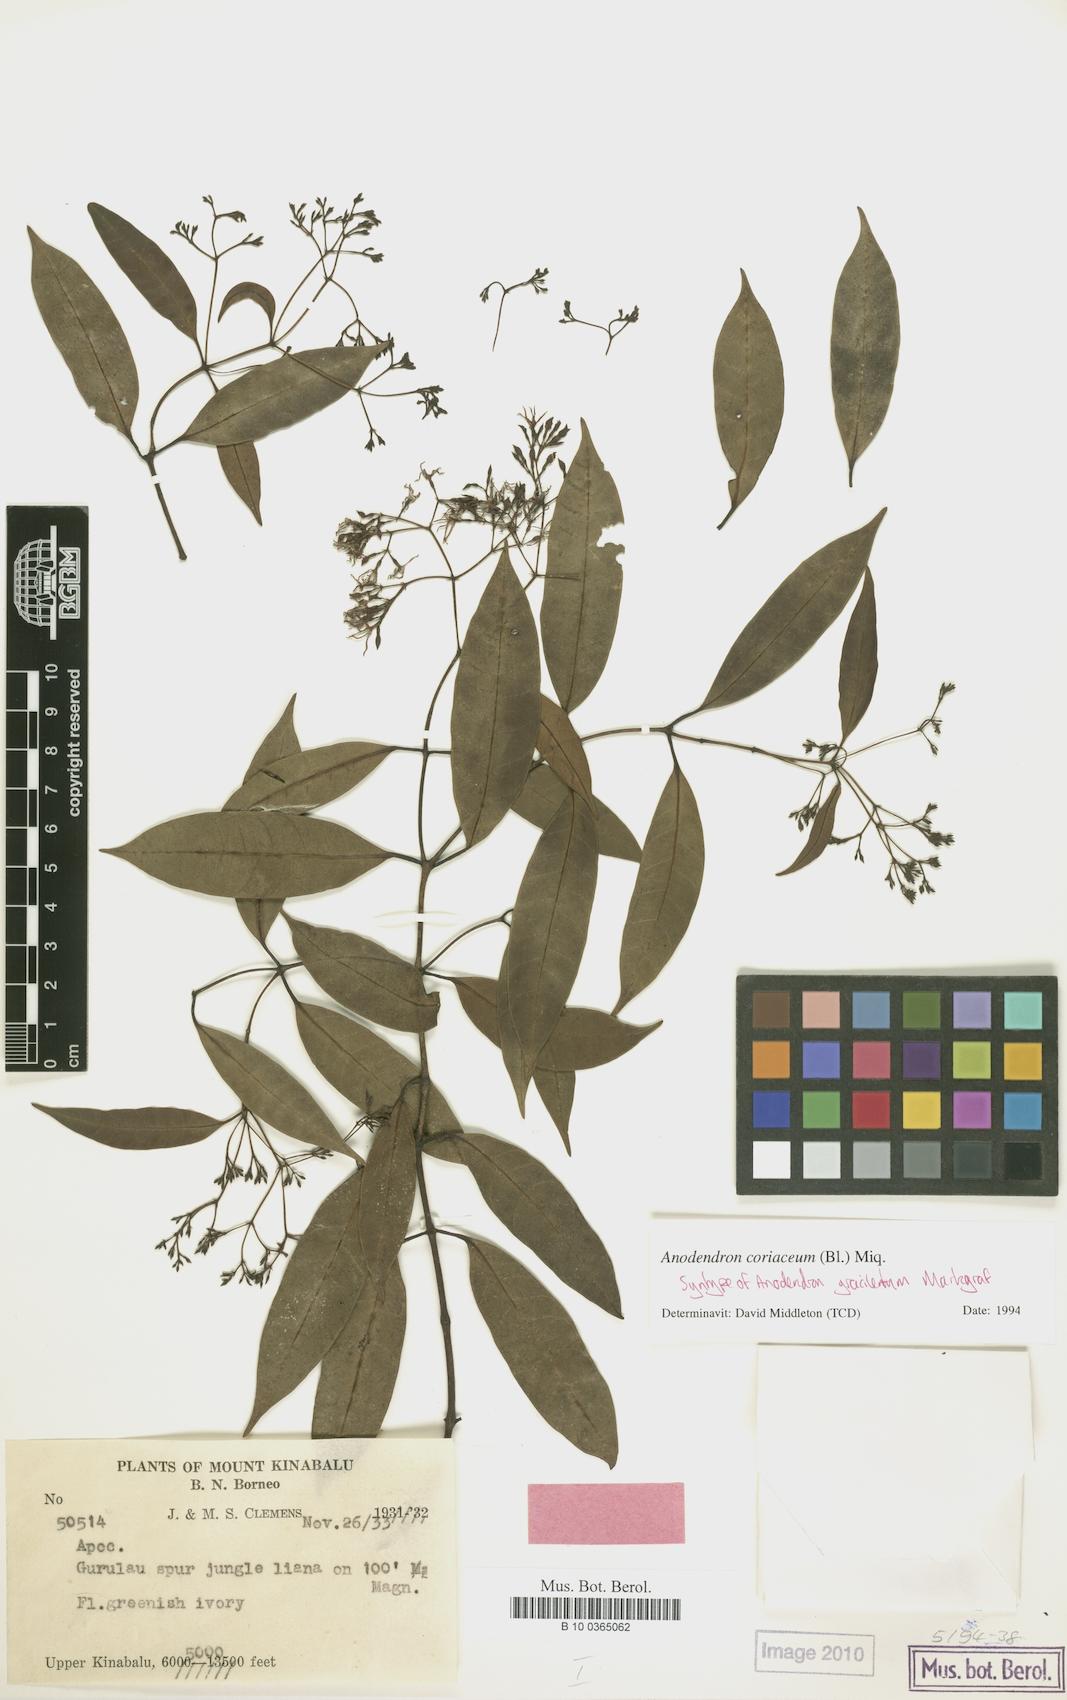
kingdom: Plantae
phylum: Tracheophyta
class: Magnoliopsida
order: Gentianales
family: Apocynaceae
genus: Anodendron
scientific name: Anodendron coriaceum
